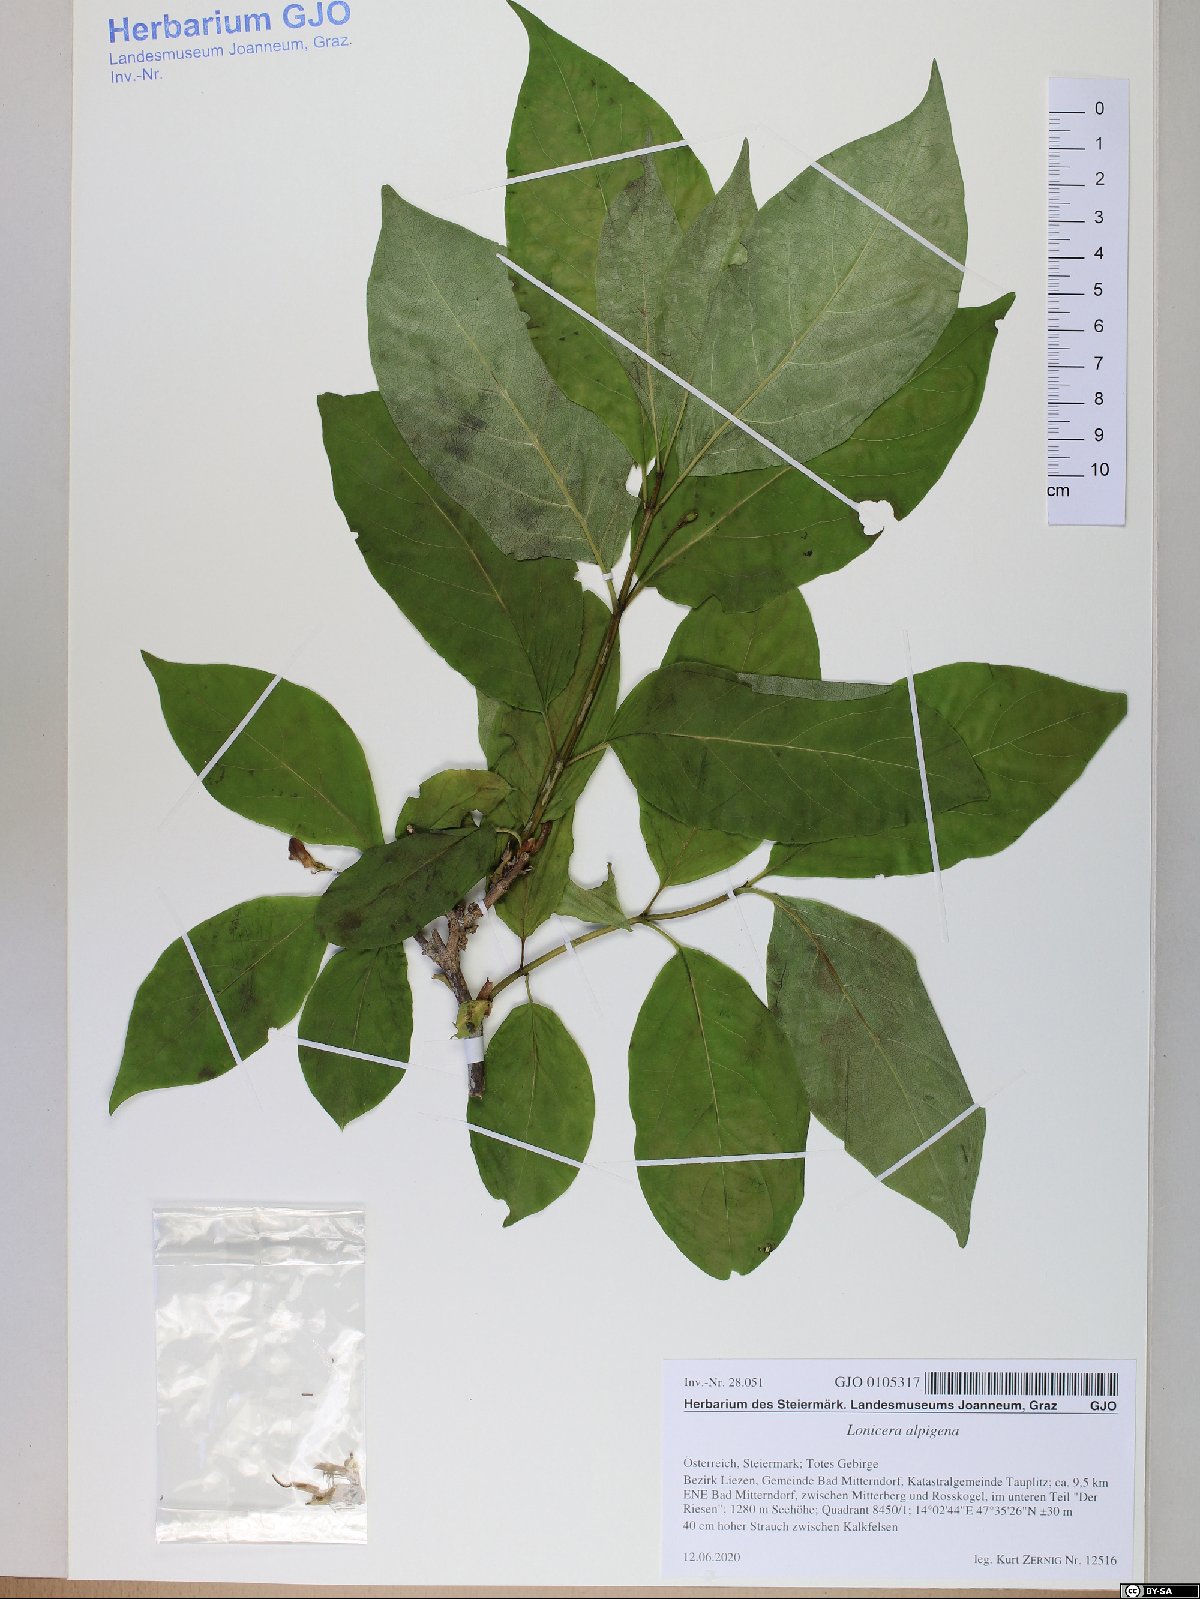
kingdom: Plantae
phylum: Tracheophyta
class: Magnoliopsida
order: Dipsacales
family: Caprifoliaceae
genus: Lonicera
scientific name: Lonicera alpigena
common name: Alpine honeysuckle
